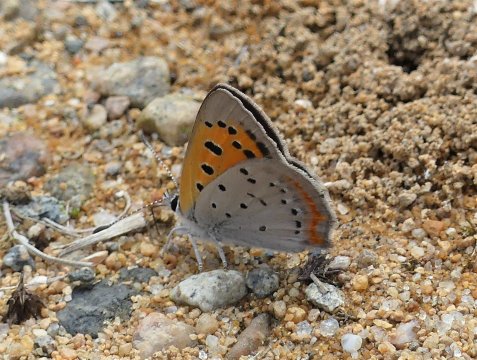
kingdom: Animalia
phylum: Arthropoda
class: Insecta
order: Lepidoptera
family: Lycaenidae
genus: Lycaena
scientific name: Lycaena phlaeas
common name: American Copper
